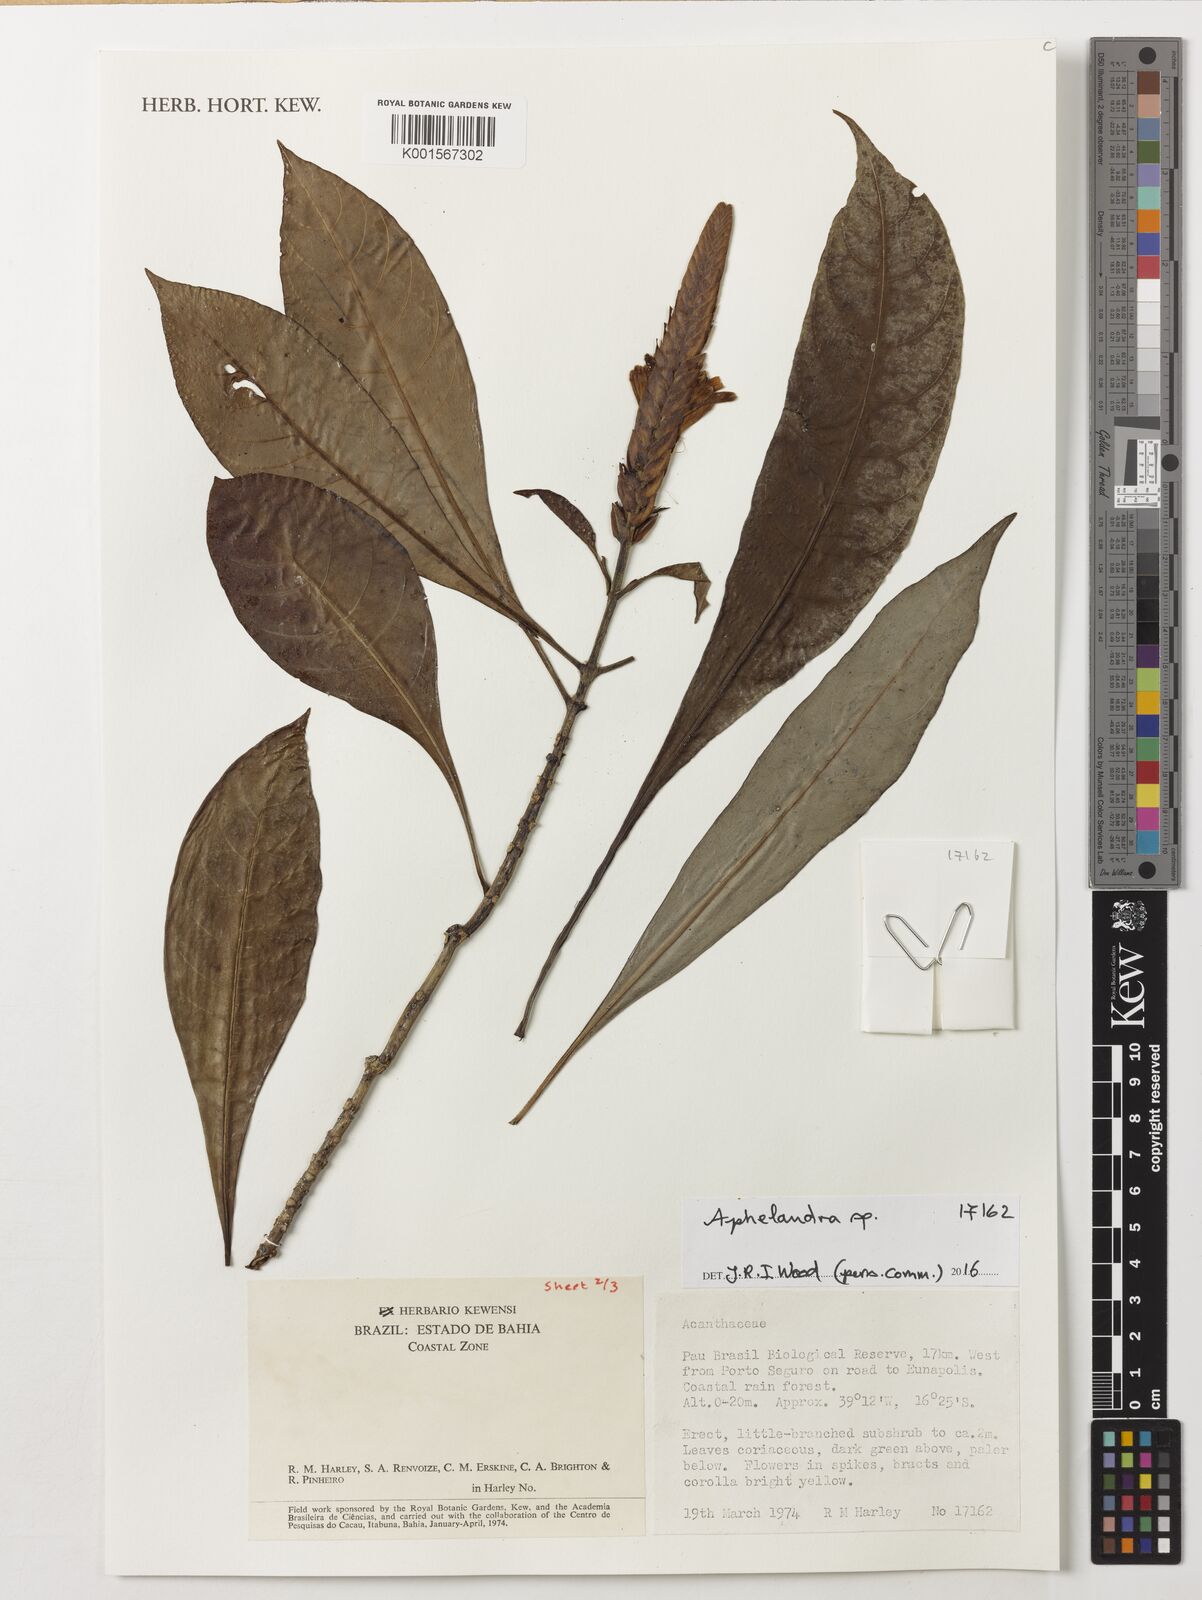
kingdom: Plantae
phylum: Tracheophyta
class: Magnoliopsida
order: Lamiales
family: Acanthaceae
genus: Aphelandra
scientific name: Aphelandra harleyi
